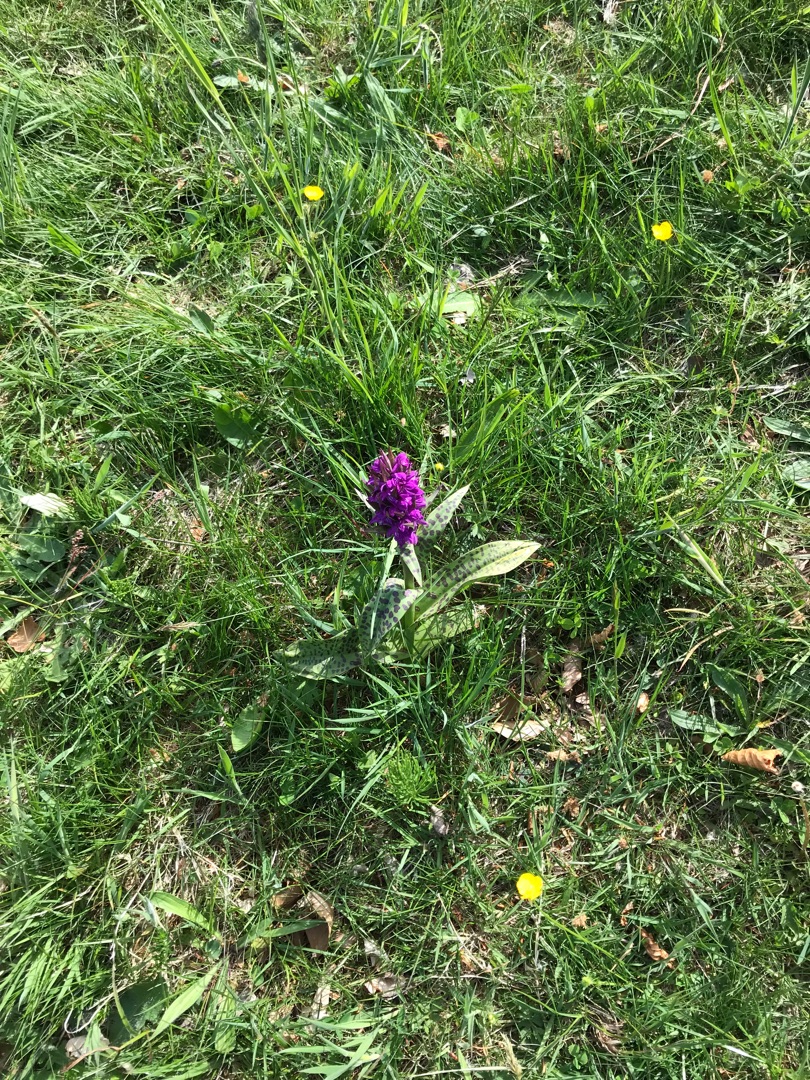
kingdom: Plantae
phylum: Tracheophyta
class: Liliopsida
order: Asparagales
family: Orchidaceae
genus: Dactylorhiza
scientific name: Dactylorhiza majalis
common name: Maj-gøgeurt
